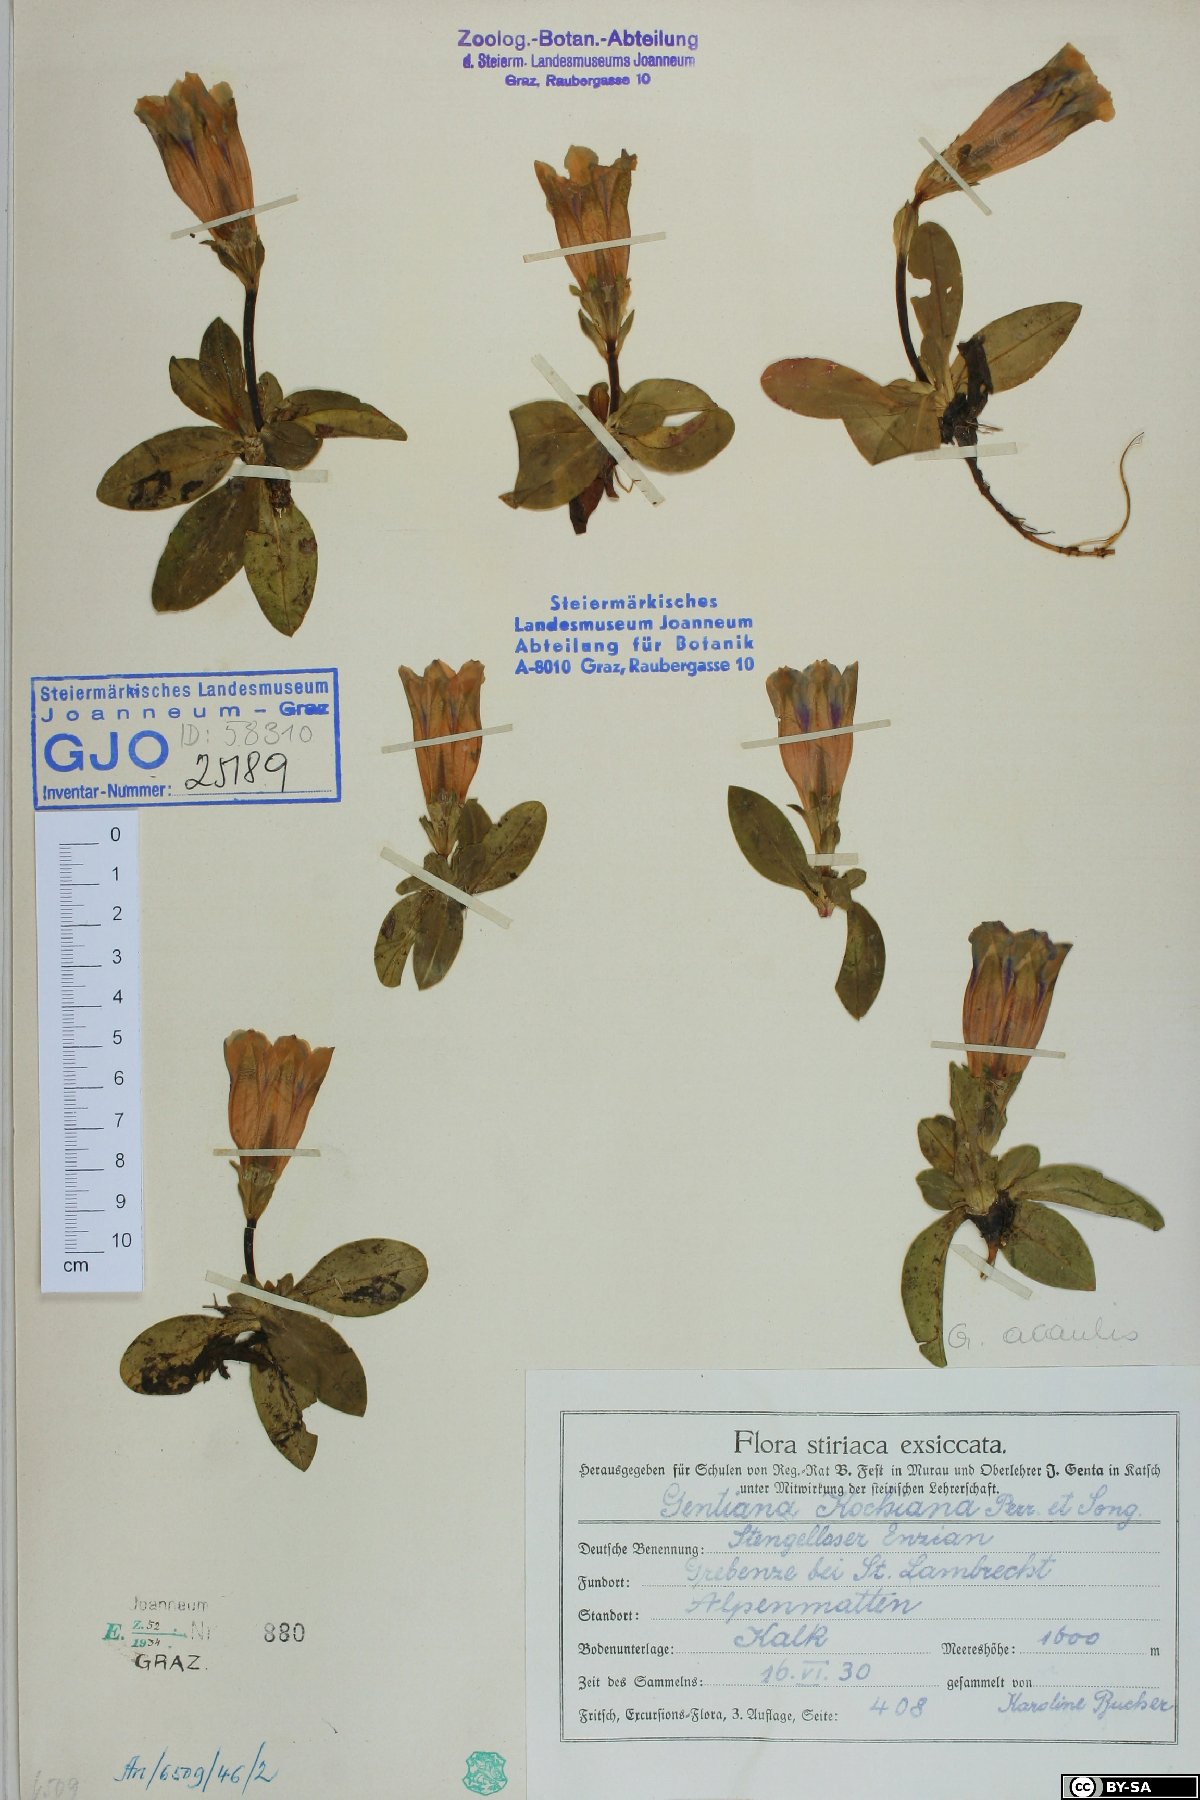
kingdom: Plantae
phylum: Tracheophyta
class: Magnoliopsida
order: Gentianales
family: Gentianaceae
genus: Gentiana
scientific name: Gentiana acaulis
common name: Trumpet gentian
